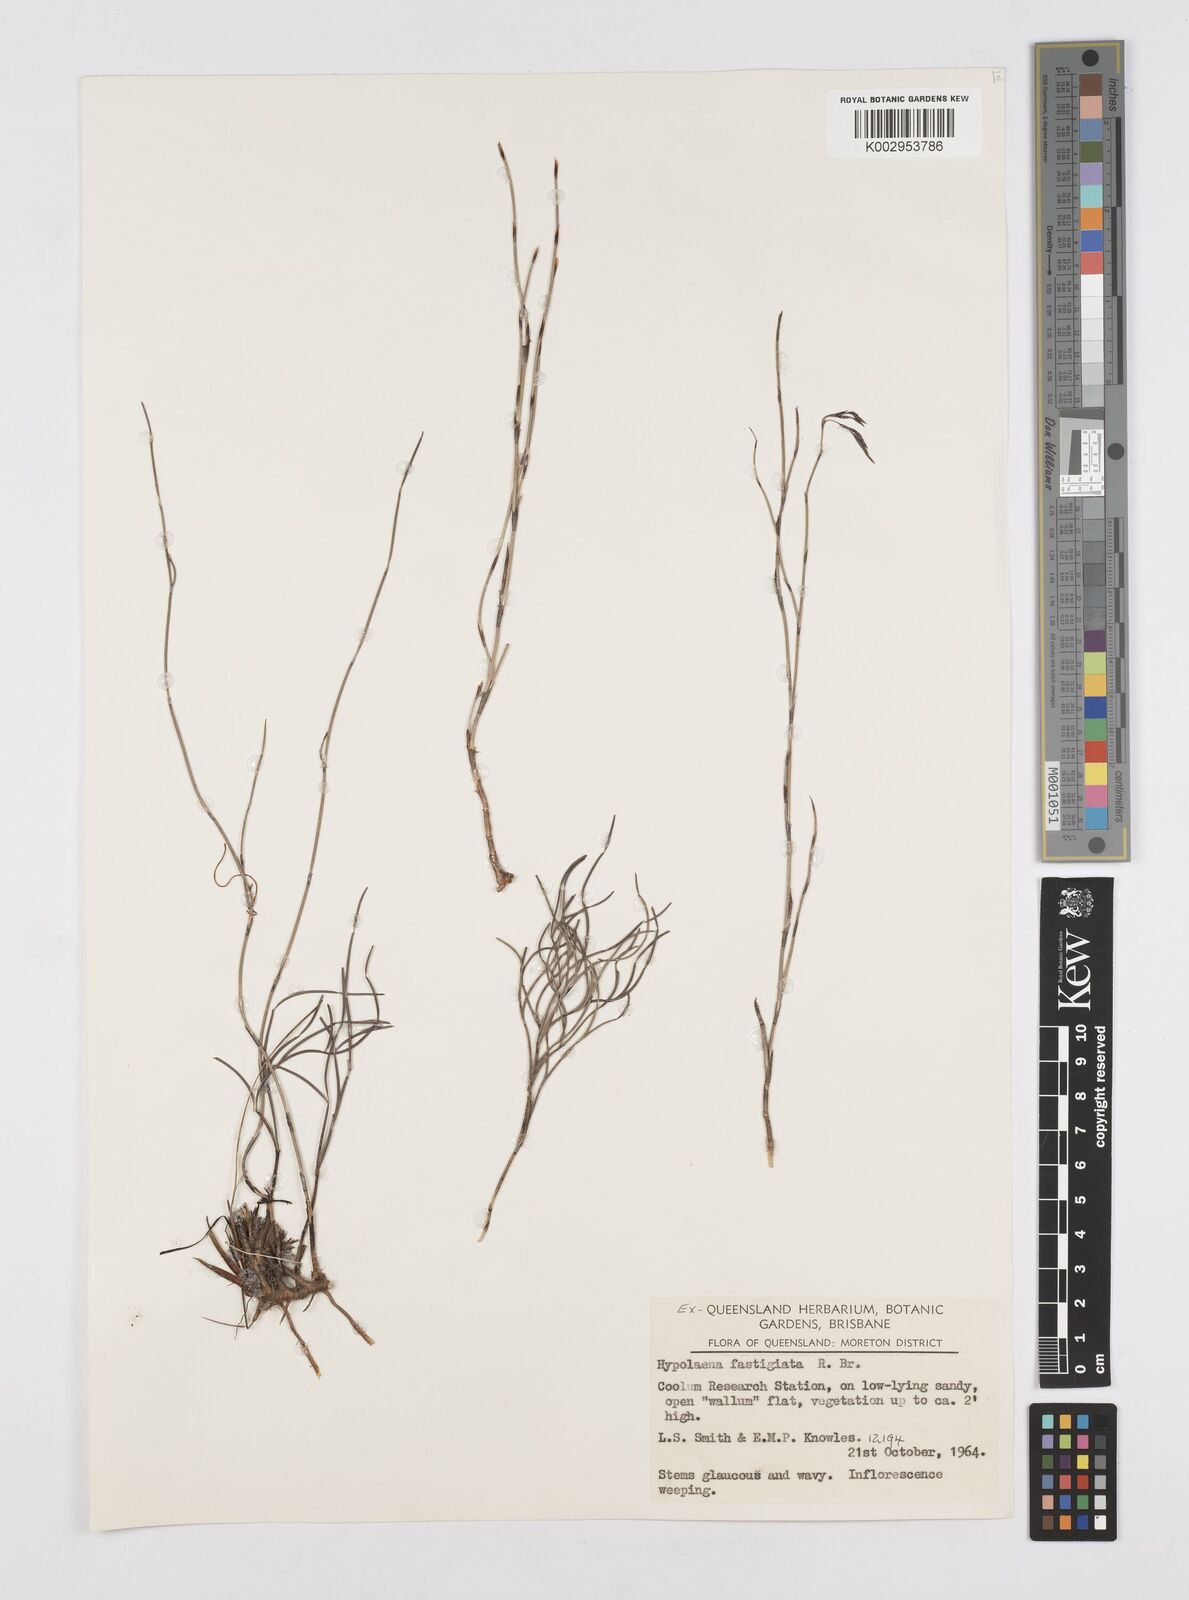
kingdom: Plantae
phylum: Tracheophyta
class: Liliopsida
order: Poales
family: Restionaceae
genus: Hypolaena
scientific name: Hypolaena fastigiata
